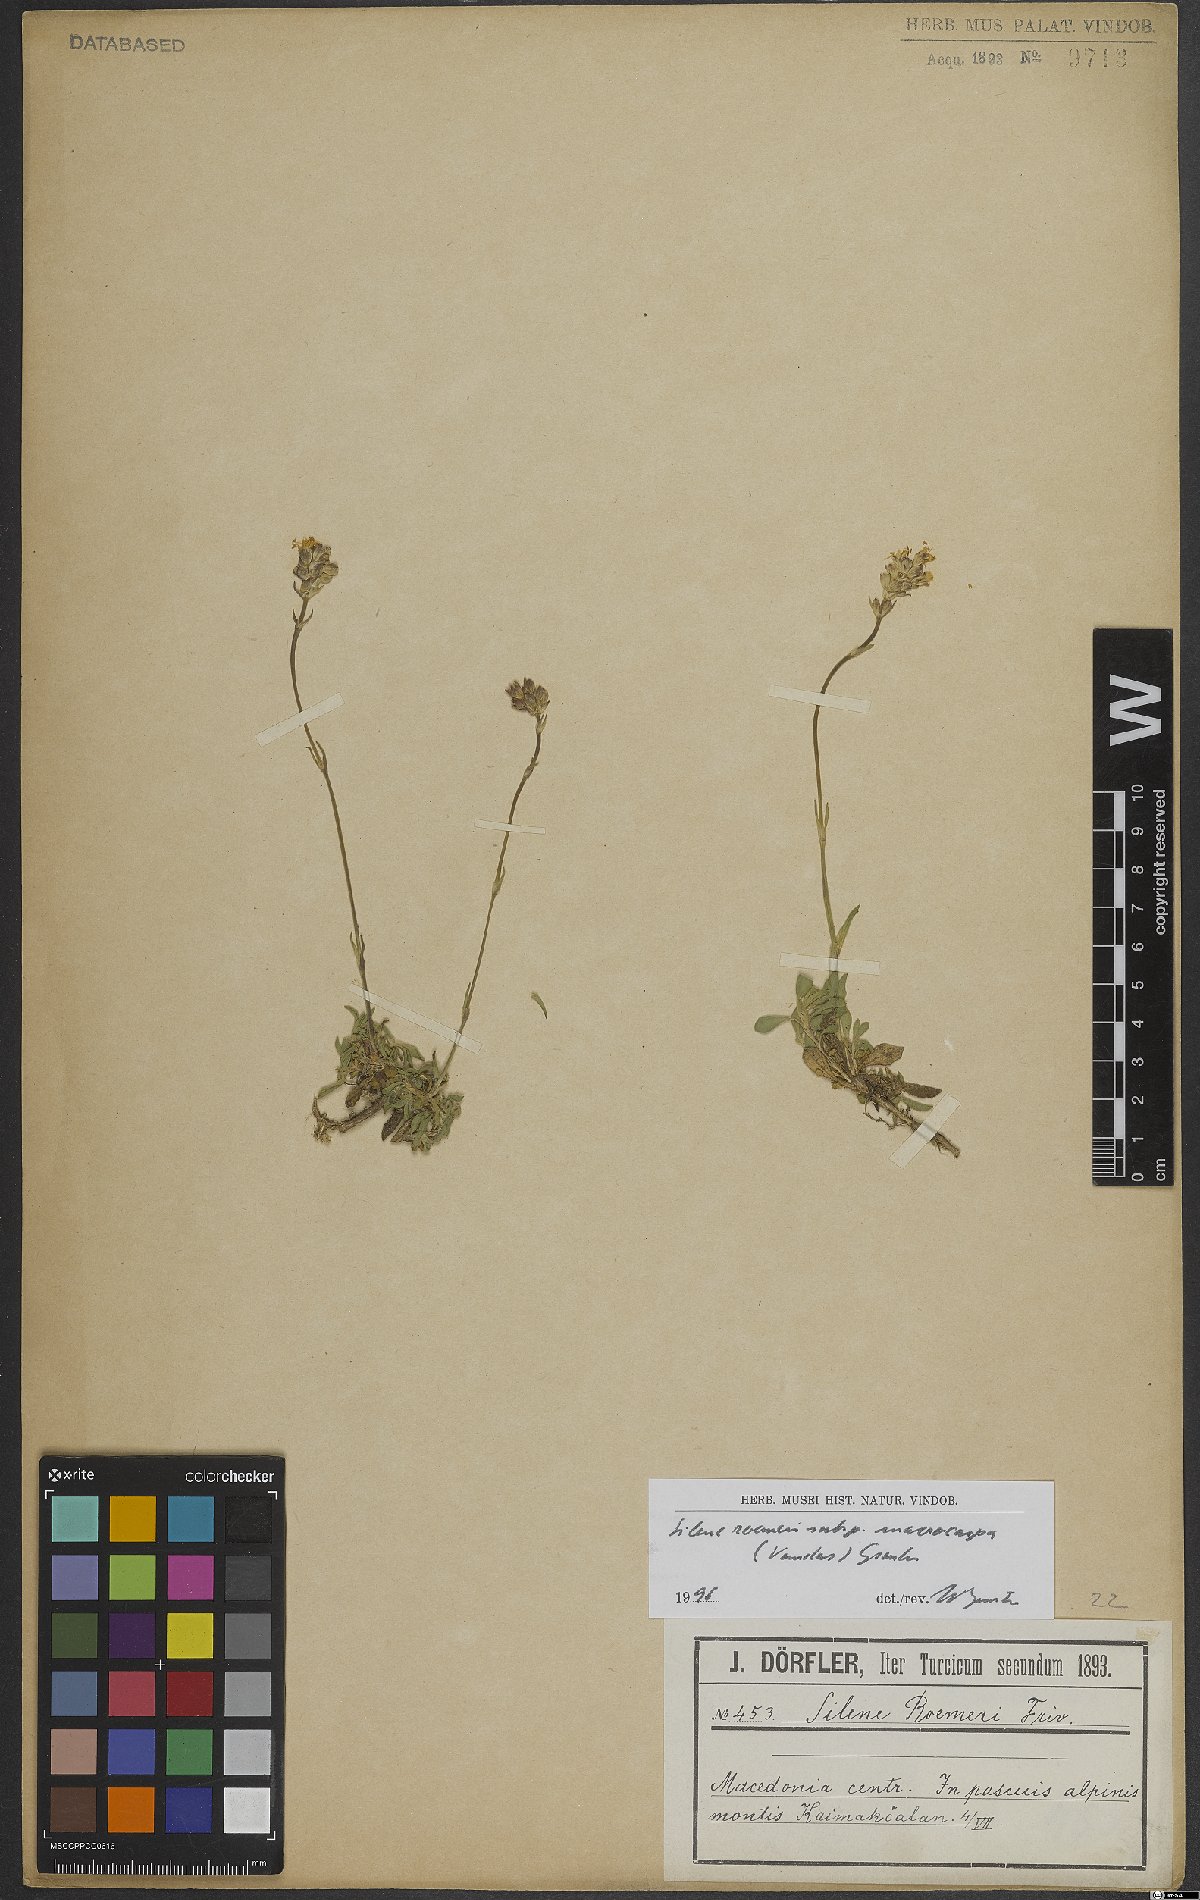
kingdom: Plantae
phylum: Tracheophyta
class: Magnoliopsida
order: Caryophyllales
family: Caryophyllaceae
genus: Silene
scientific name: Silene roemeri
